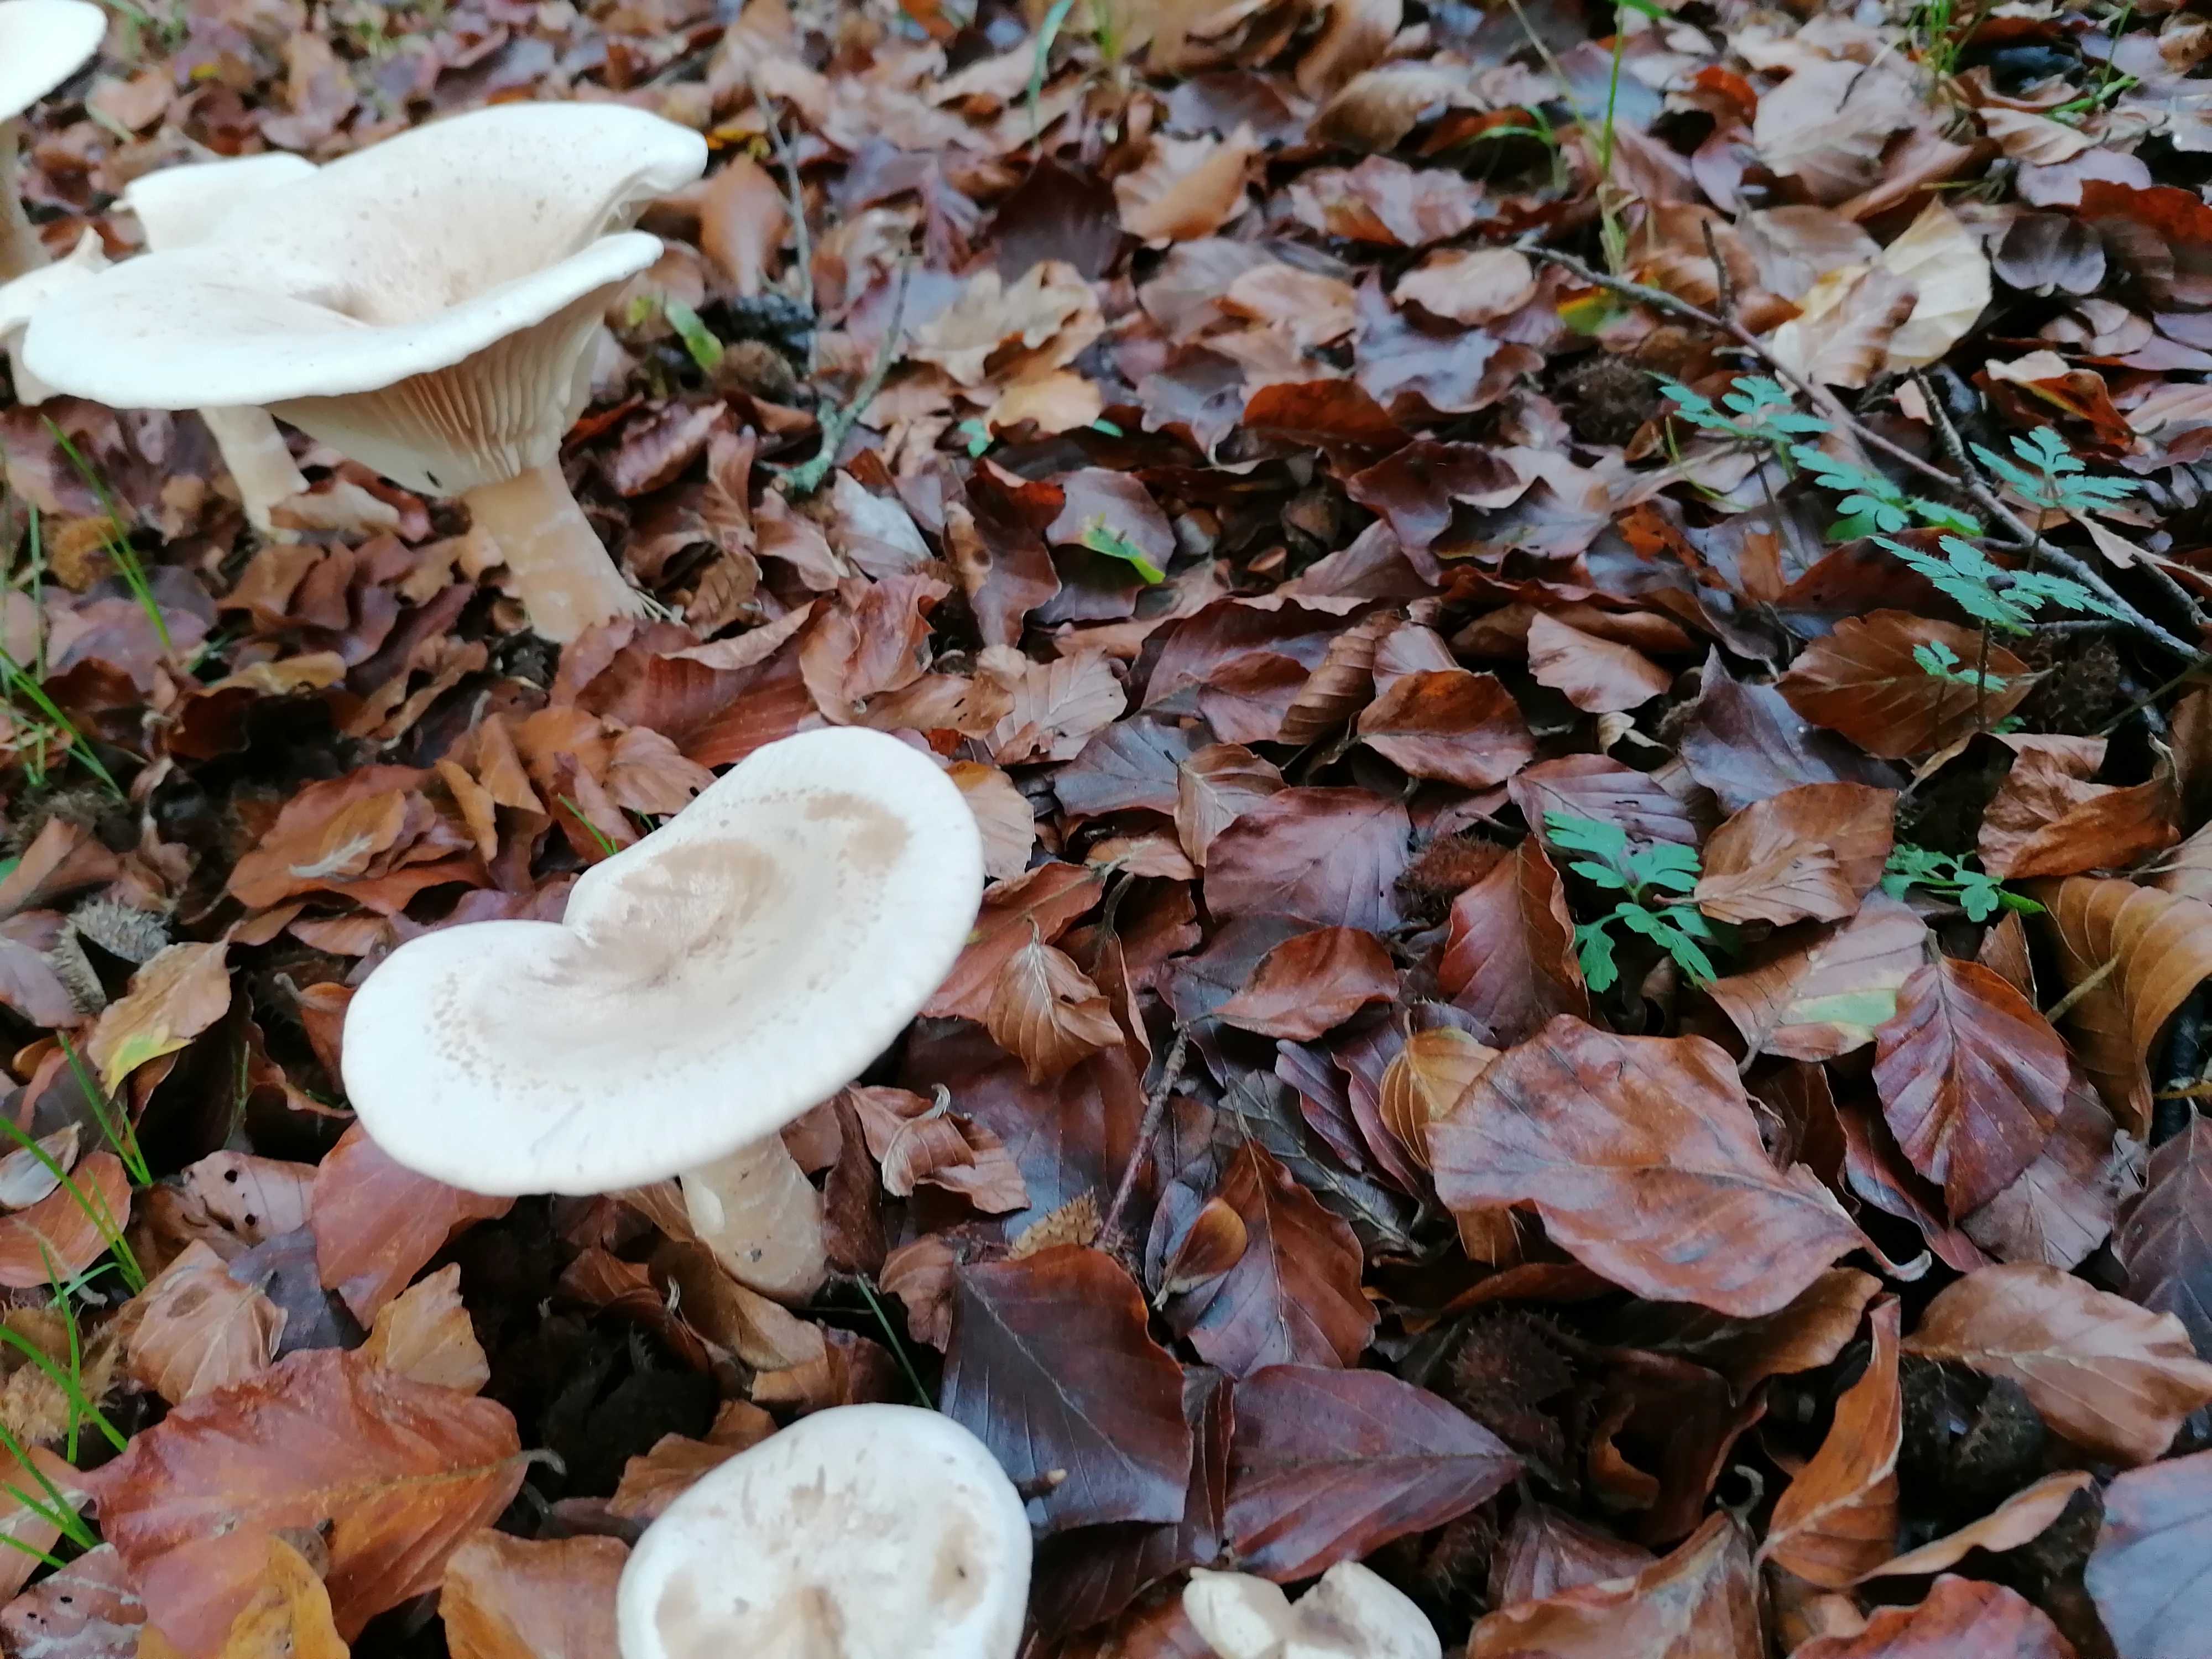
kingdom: Fungi
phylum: Basidiomycota
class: Agaricomycetes
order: Agaricales
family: Tricholomataceae
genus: Infundibulicybe
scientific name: Infundibulicybe geotropa
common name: stor tragthat
